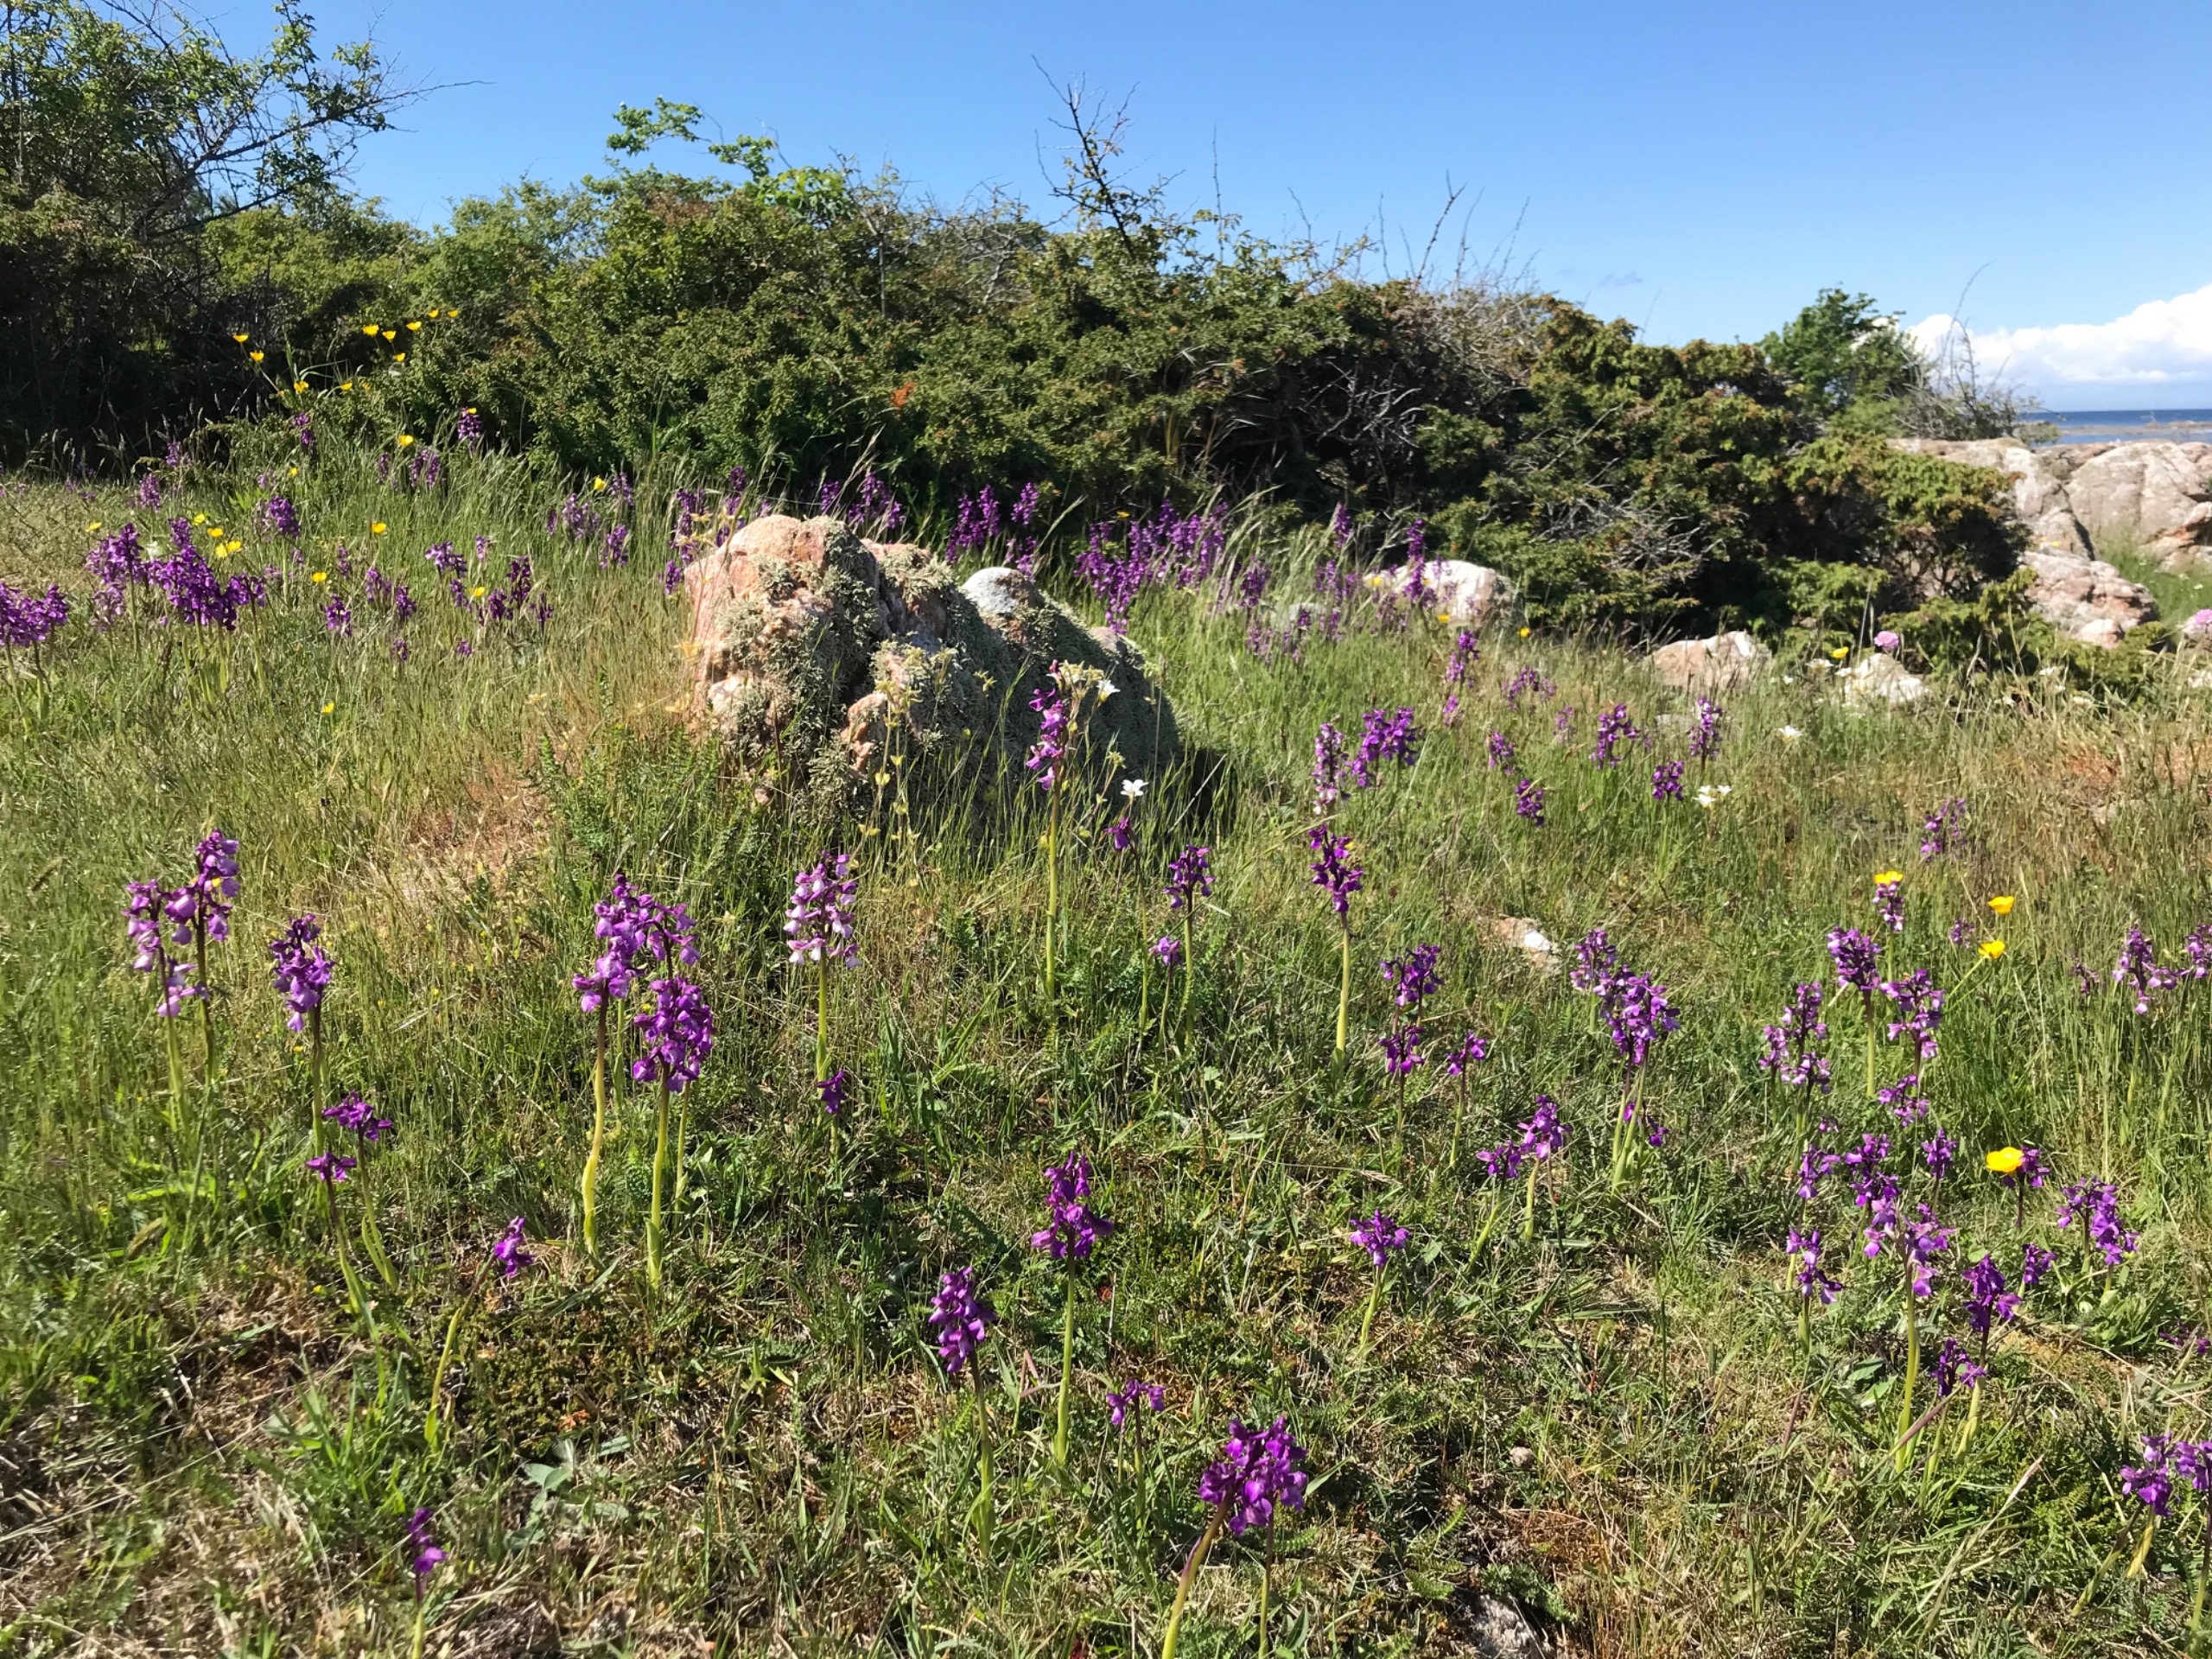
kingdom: Plantae
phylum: Tracheophyta
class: Liliopsida
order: Asparagales
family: Orchidaceae
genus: Anacamptis
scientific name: Anacamptis morio
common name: Salepgøgeurt
